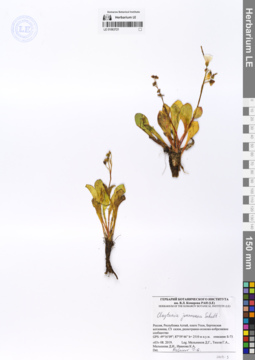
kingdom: Plantae
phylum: Tracheophyta
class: Magnoliopsida
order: Caryophyllales
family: Montiaceae
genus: Claytonia
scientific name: Claytonia joanneana
